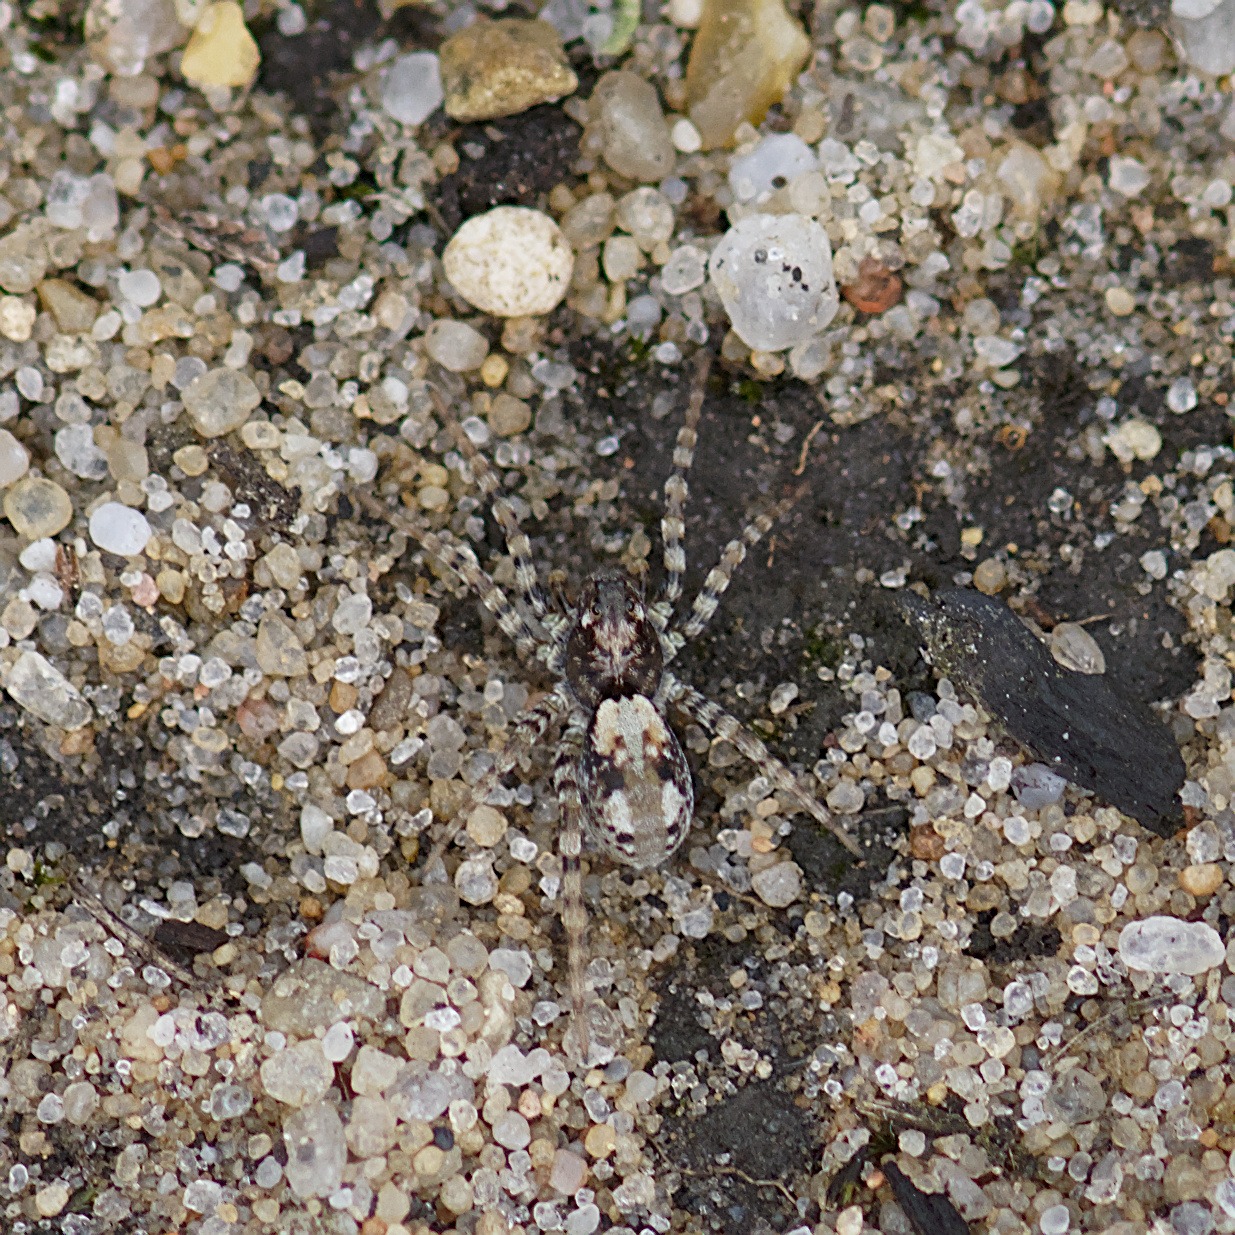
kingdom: Animalia
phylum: Arthropoda
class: Arachnida
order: Araneae
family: Lycosidae
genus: Arctosa
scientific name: Arctosa perita
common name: Klitgraveedderkop
